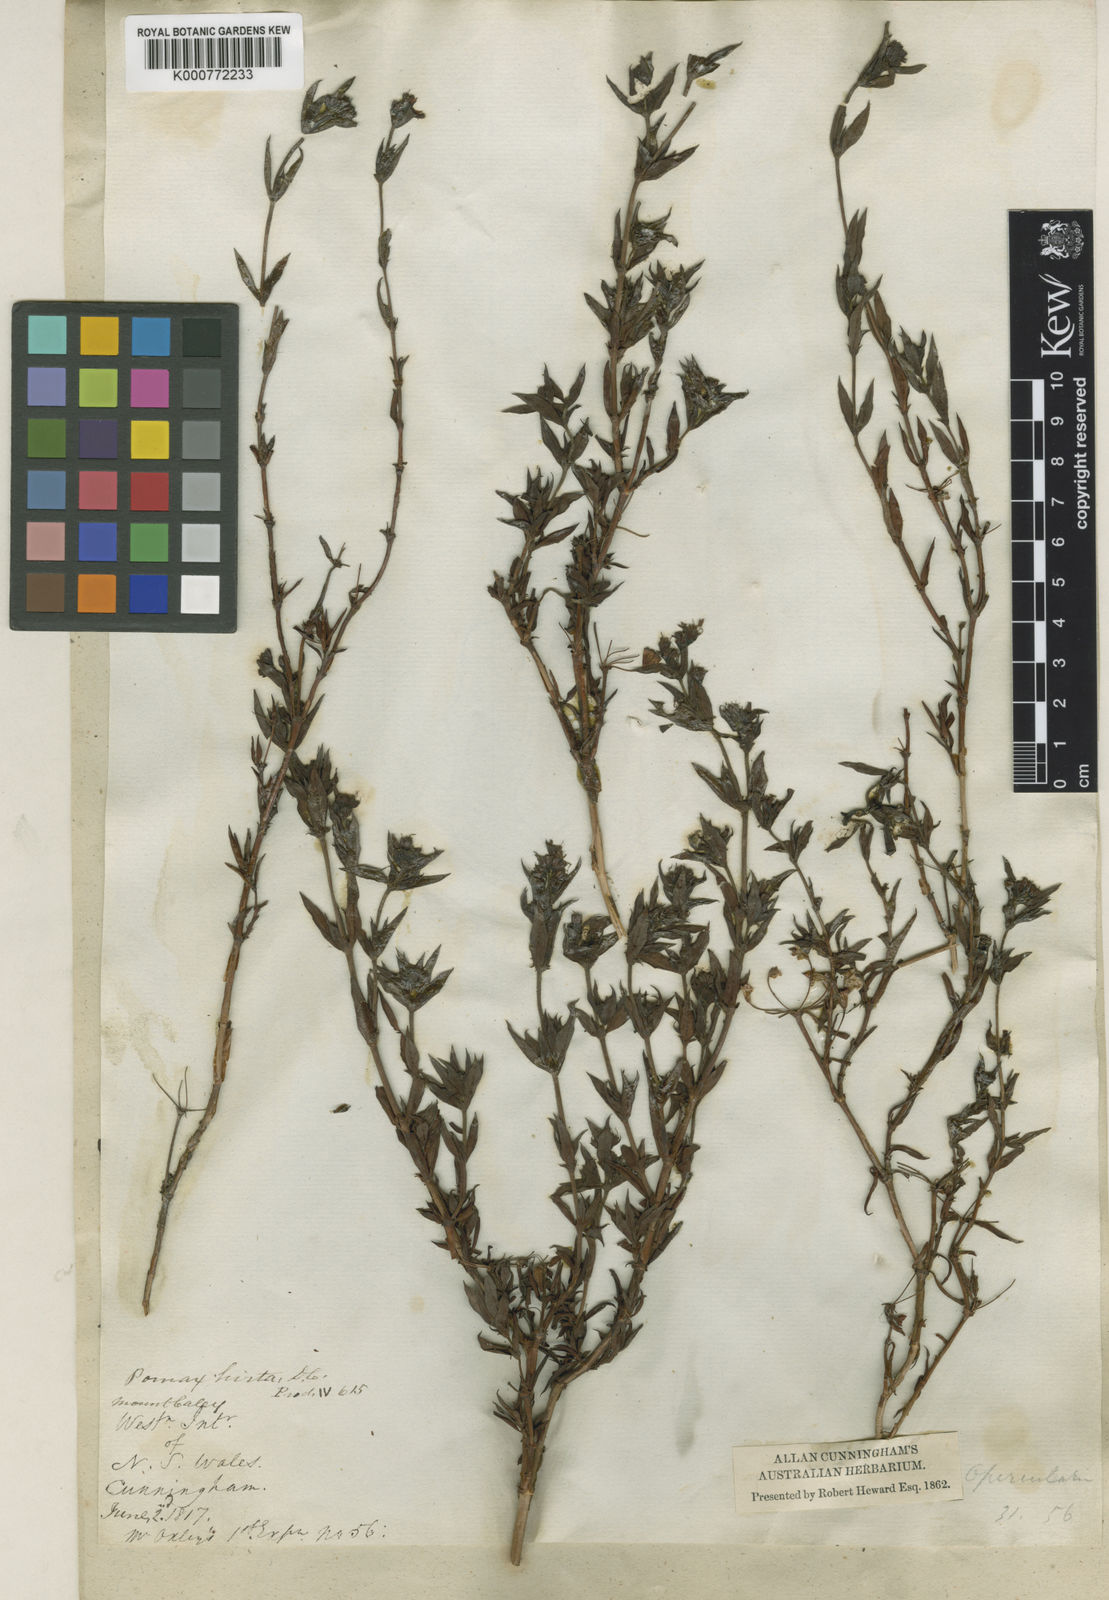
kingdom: Plantae
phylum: Tracheophyta
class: Magnoliopsida
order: Gentianales
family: Rubiaceae
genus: Pomax
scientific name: Pomax umbellata
